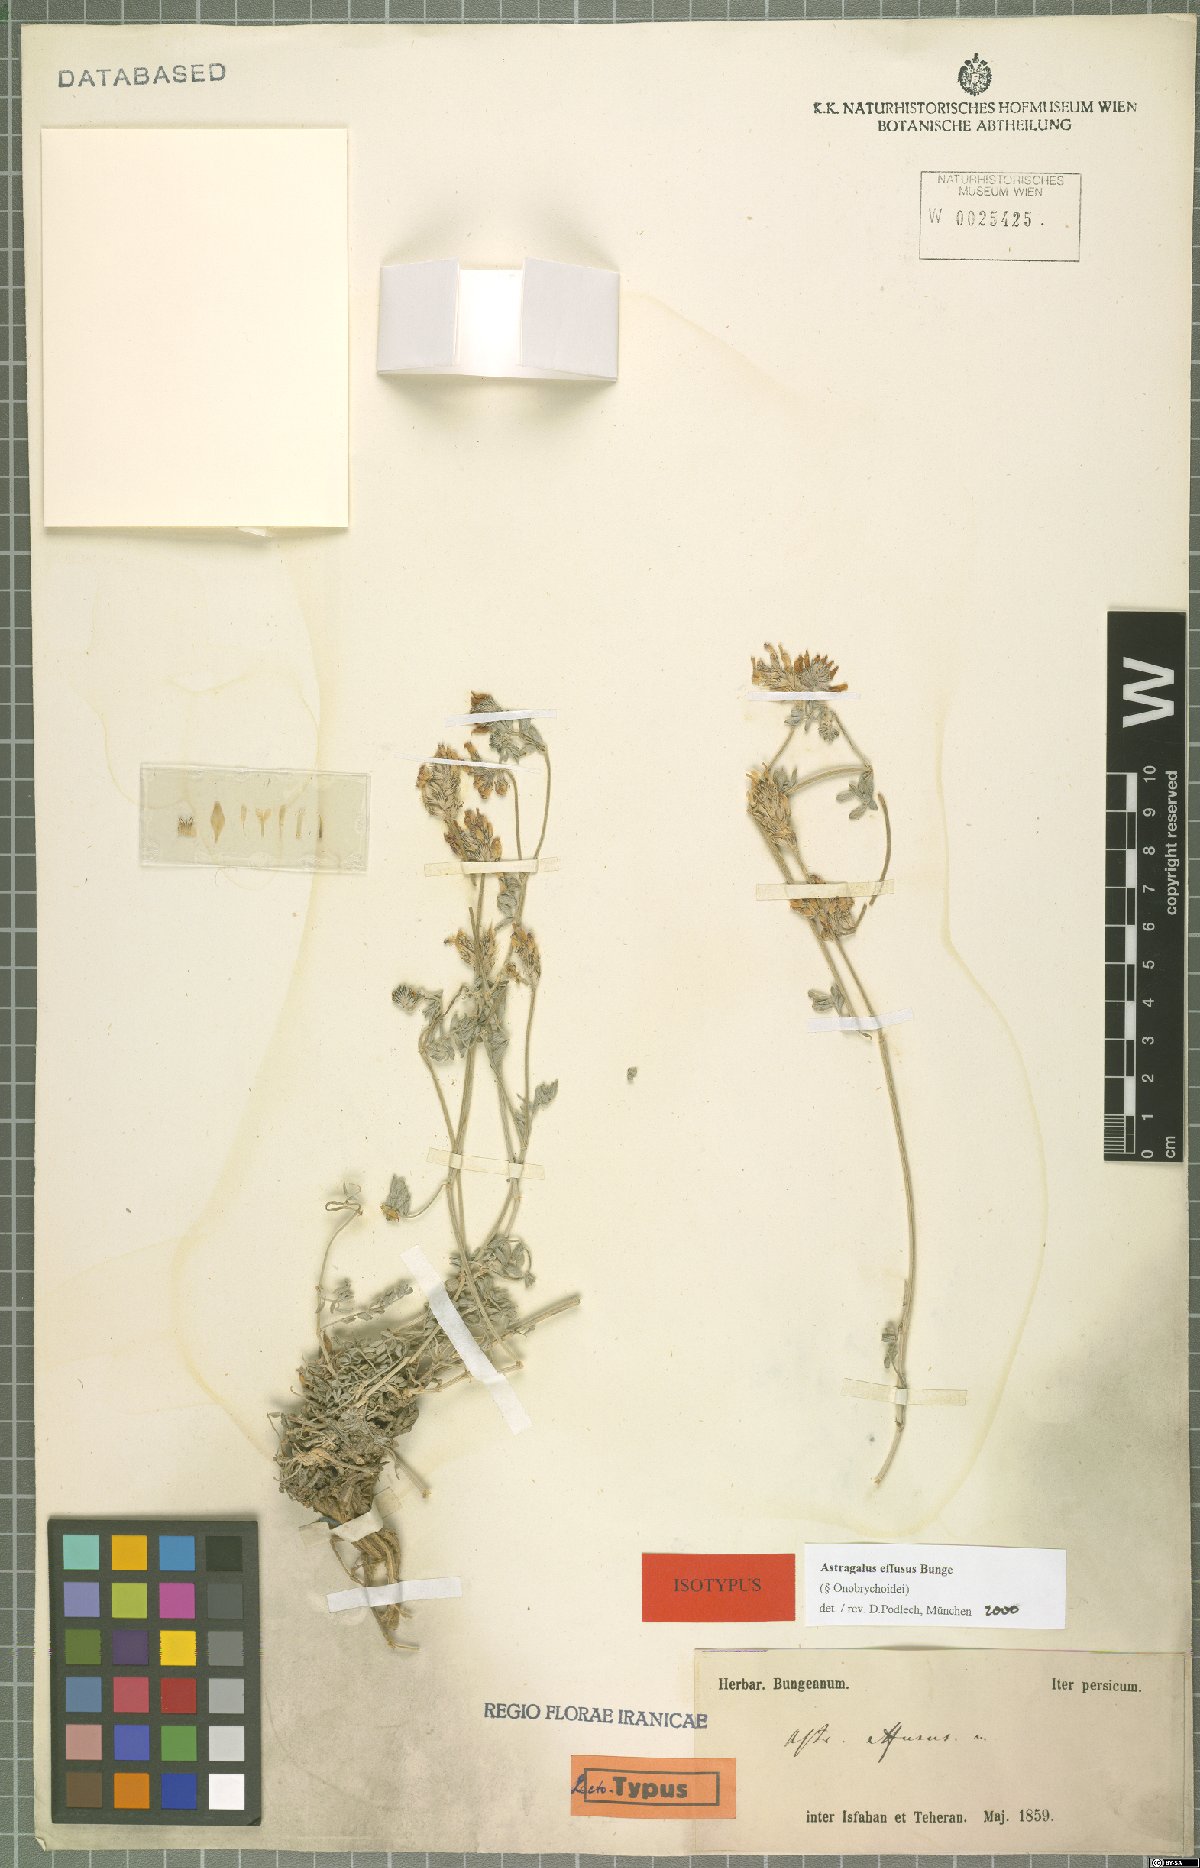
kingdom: Plantae
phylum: Tracheophyta
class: Magnoliopsida
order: Fabales
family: Fabaceae
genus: Astragalus
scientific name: Astragalus effusus
